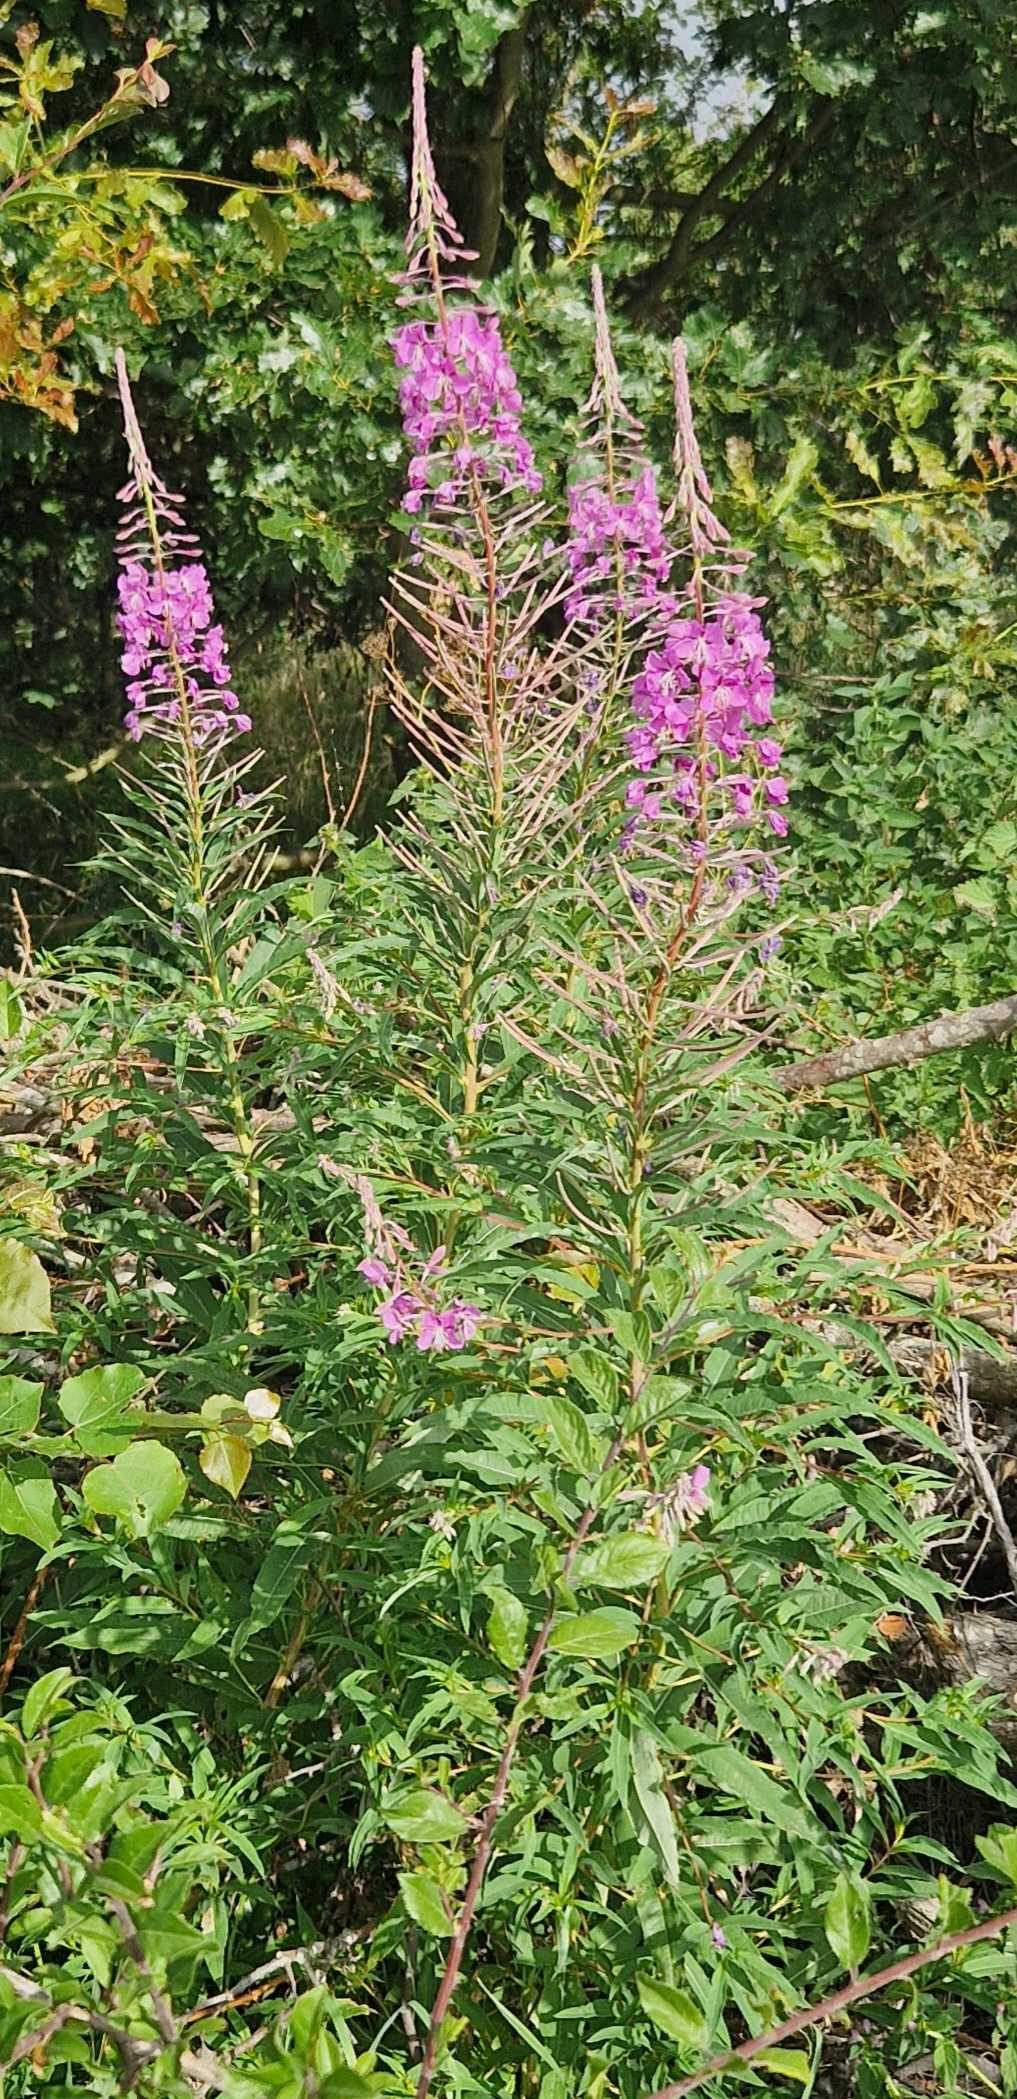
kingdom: Plantae
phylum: Tracheophyta
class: Magnoliopsida
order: Myrtales
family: Onagraceae
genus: Chamaenerion
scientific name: Chamaenerion angustifolium
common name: Gederams
